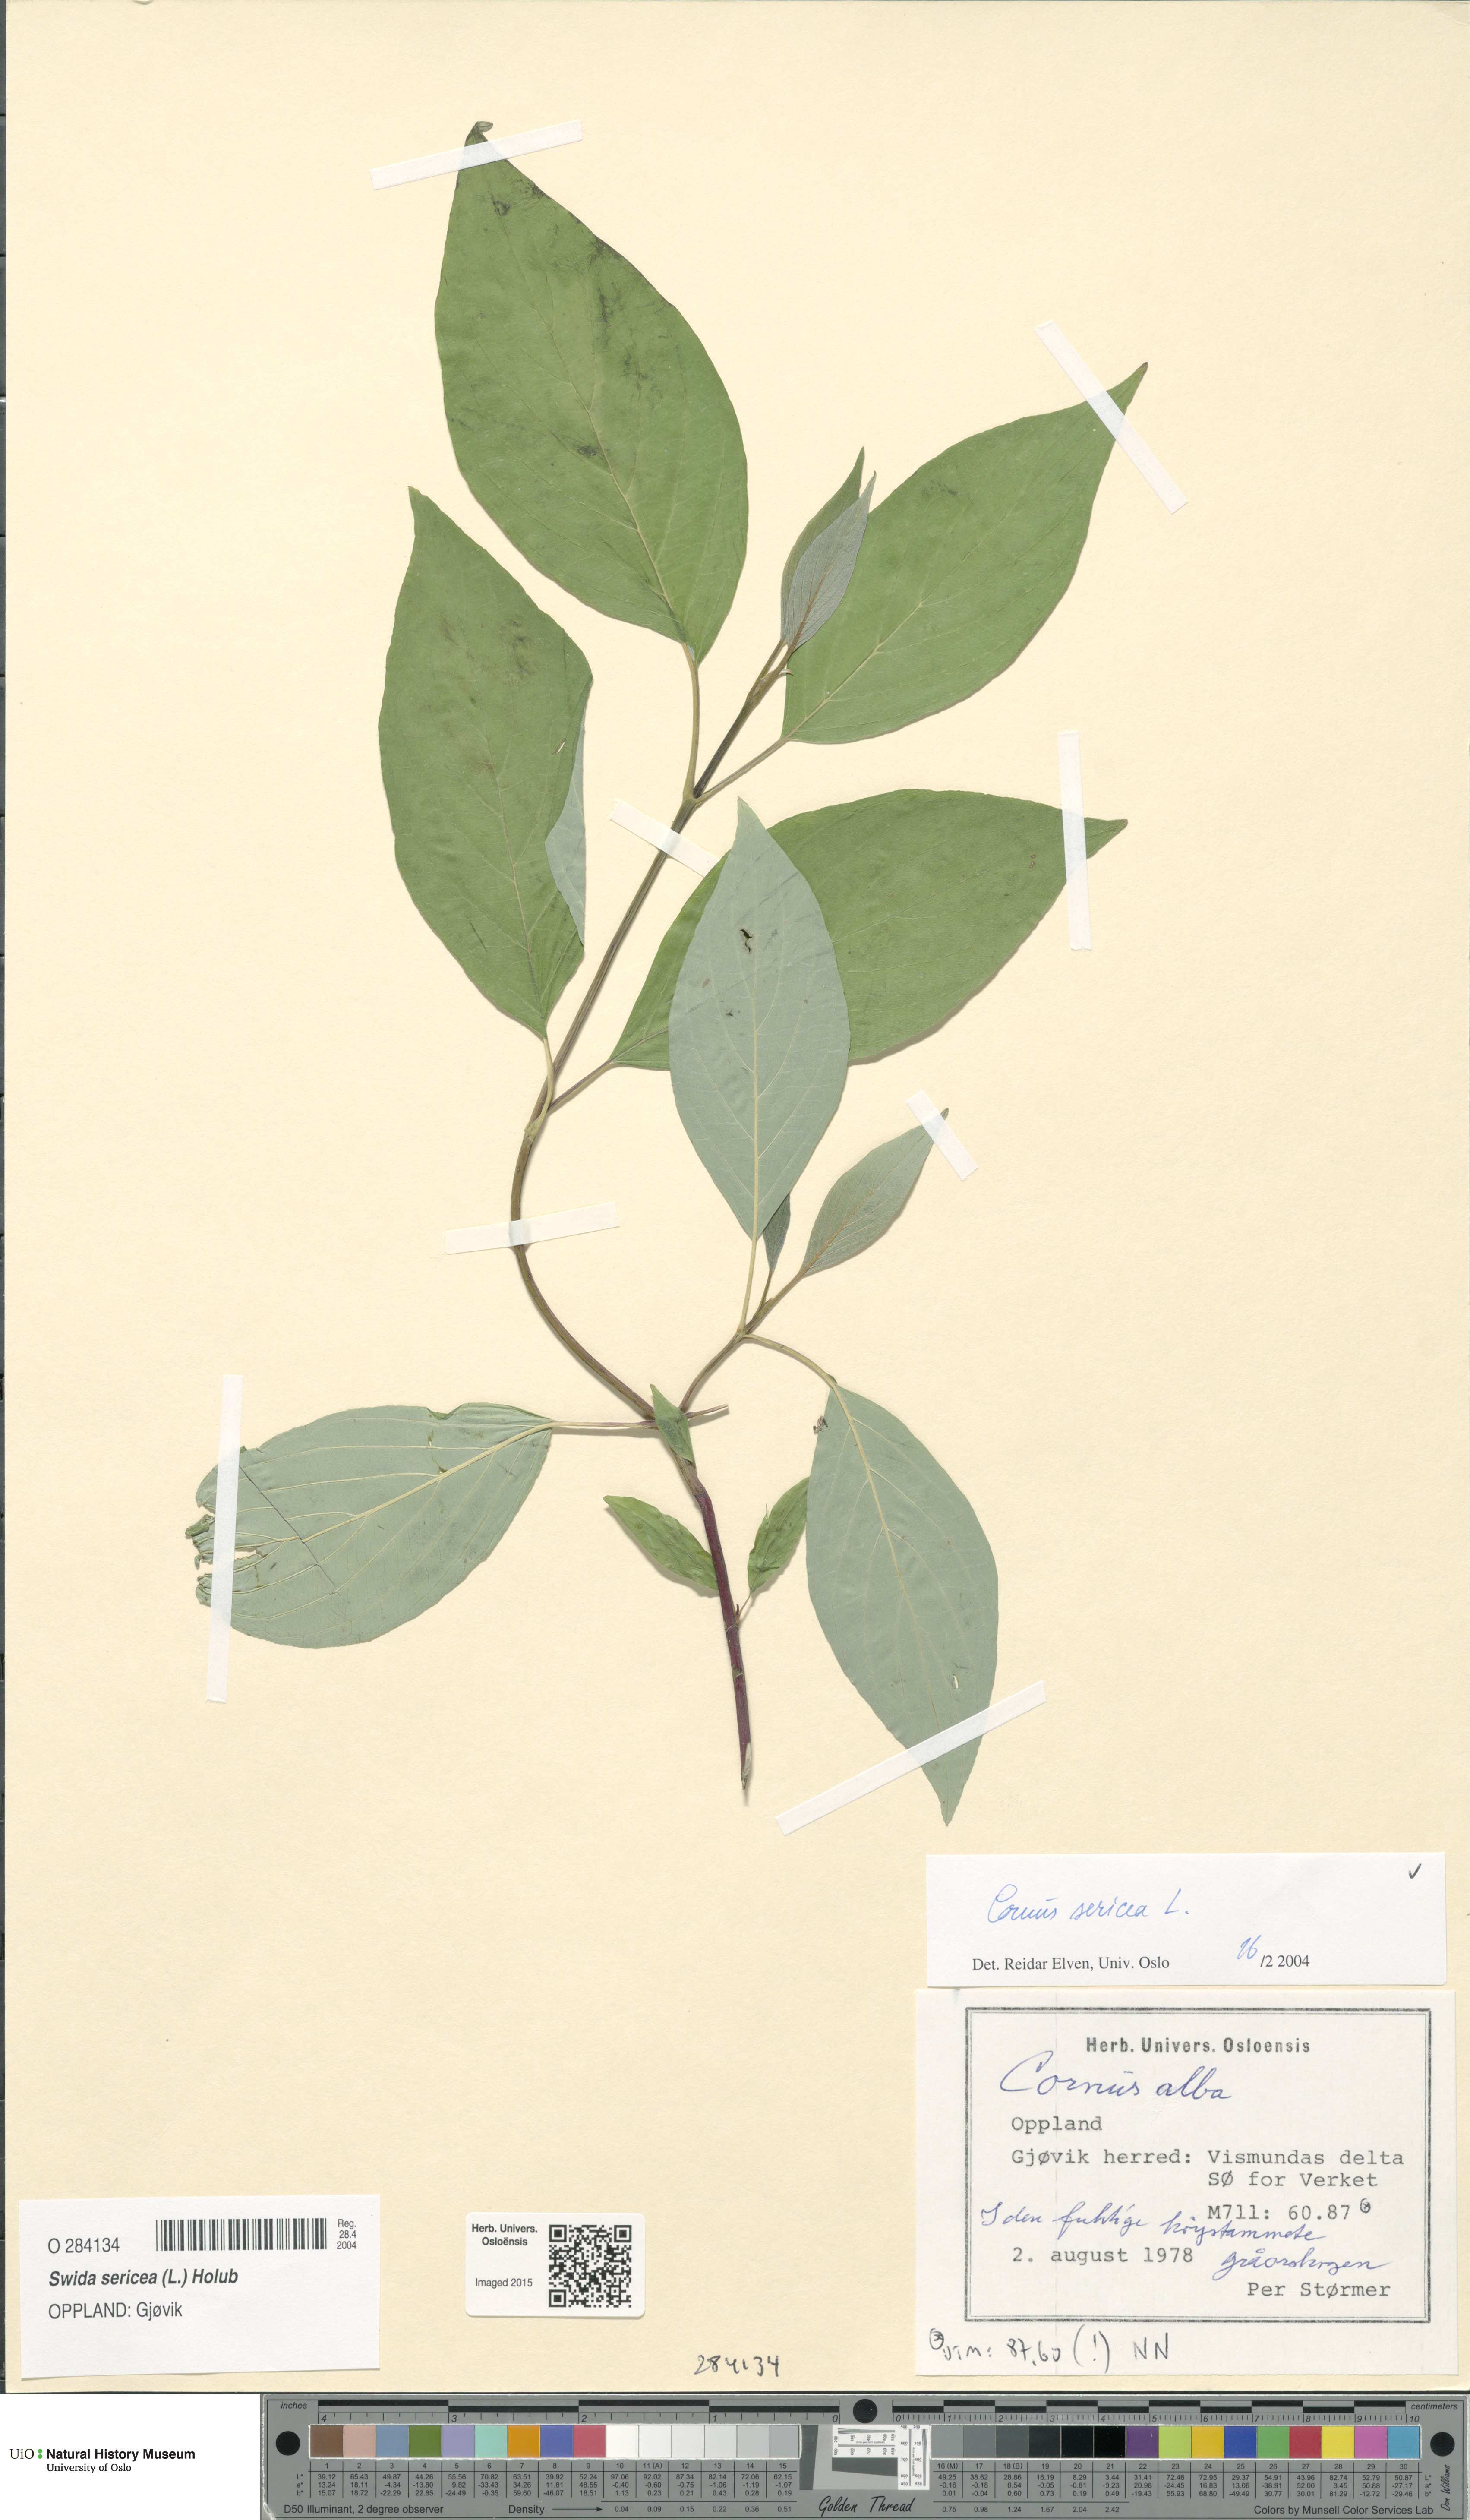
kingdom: Plantae
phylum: Tracheophyta
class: Magnoliopsida
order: Cornales
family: Cornaceae
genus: Cornus
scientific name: Cornus sericea
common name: Red-osier dogwood
